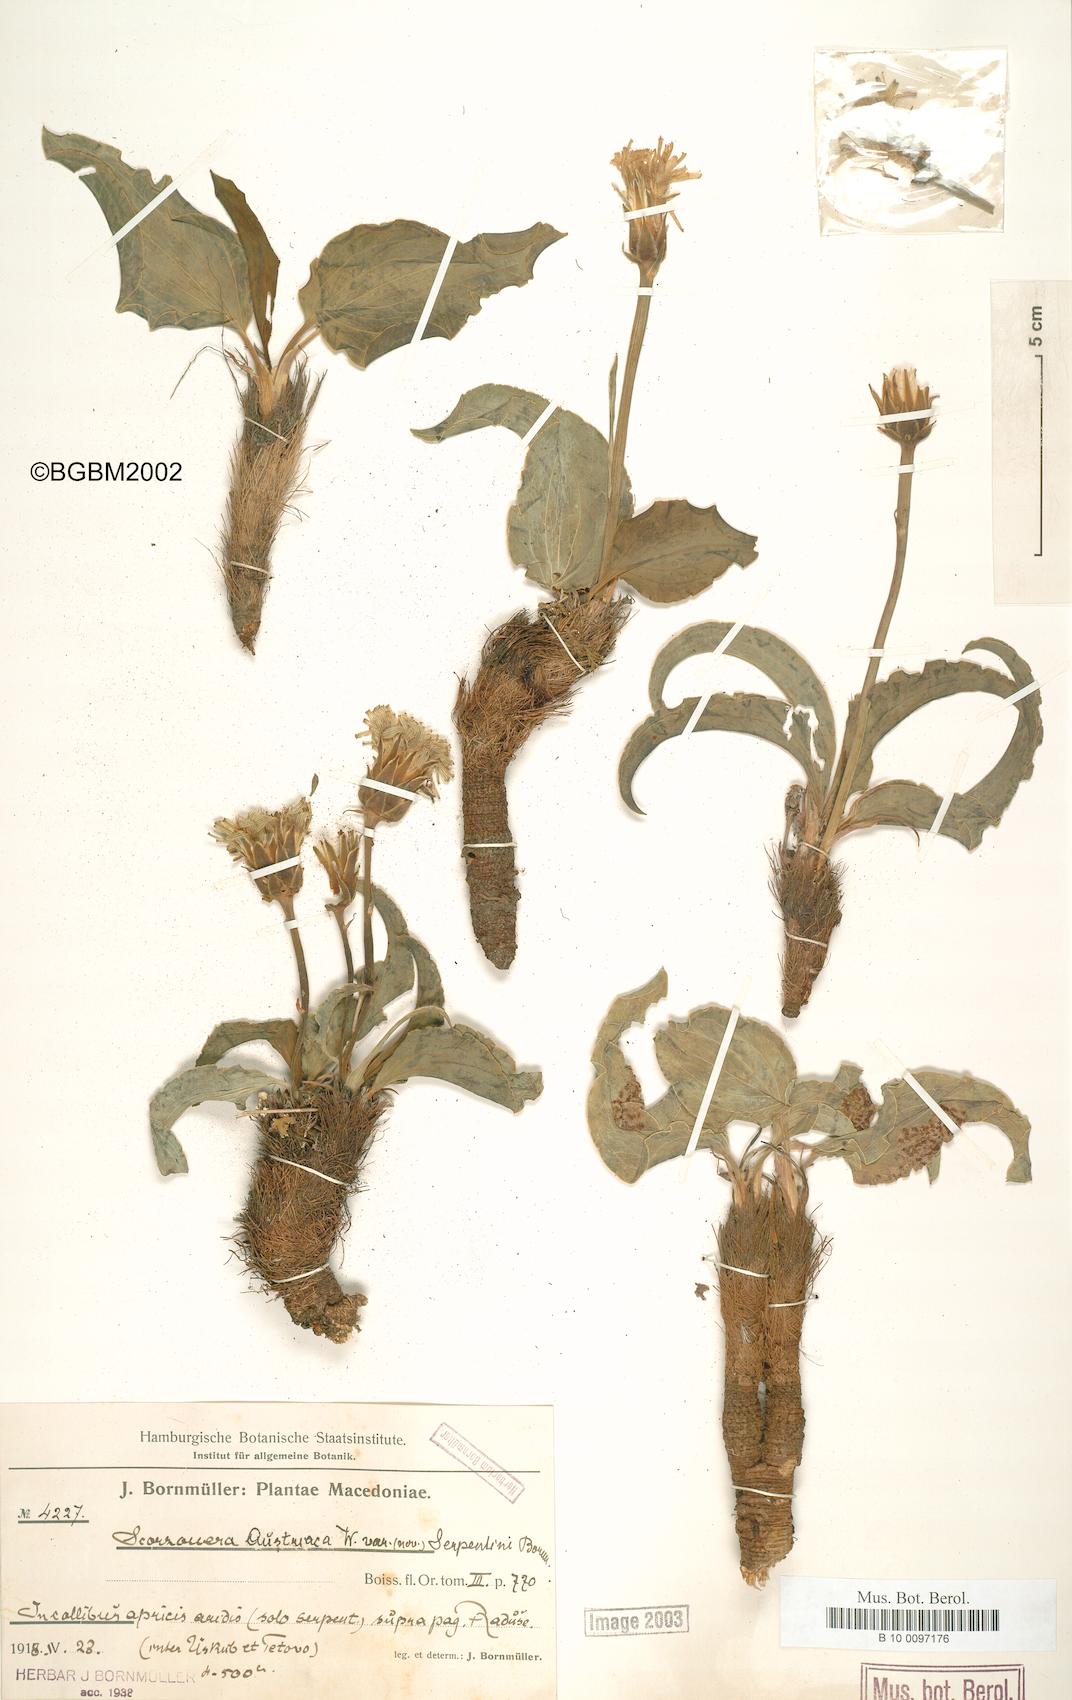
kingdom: Plantae
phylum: Tracheophyta
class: Magnoliopsida
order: Asterales
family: Asteraceae
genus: Scorzonera
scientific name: Scorzonera austriaca
